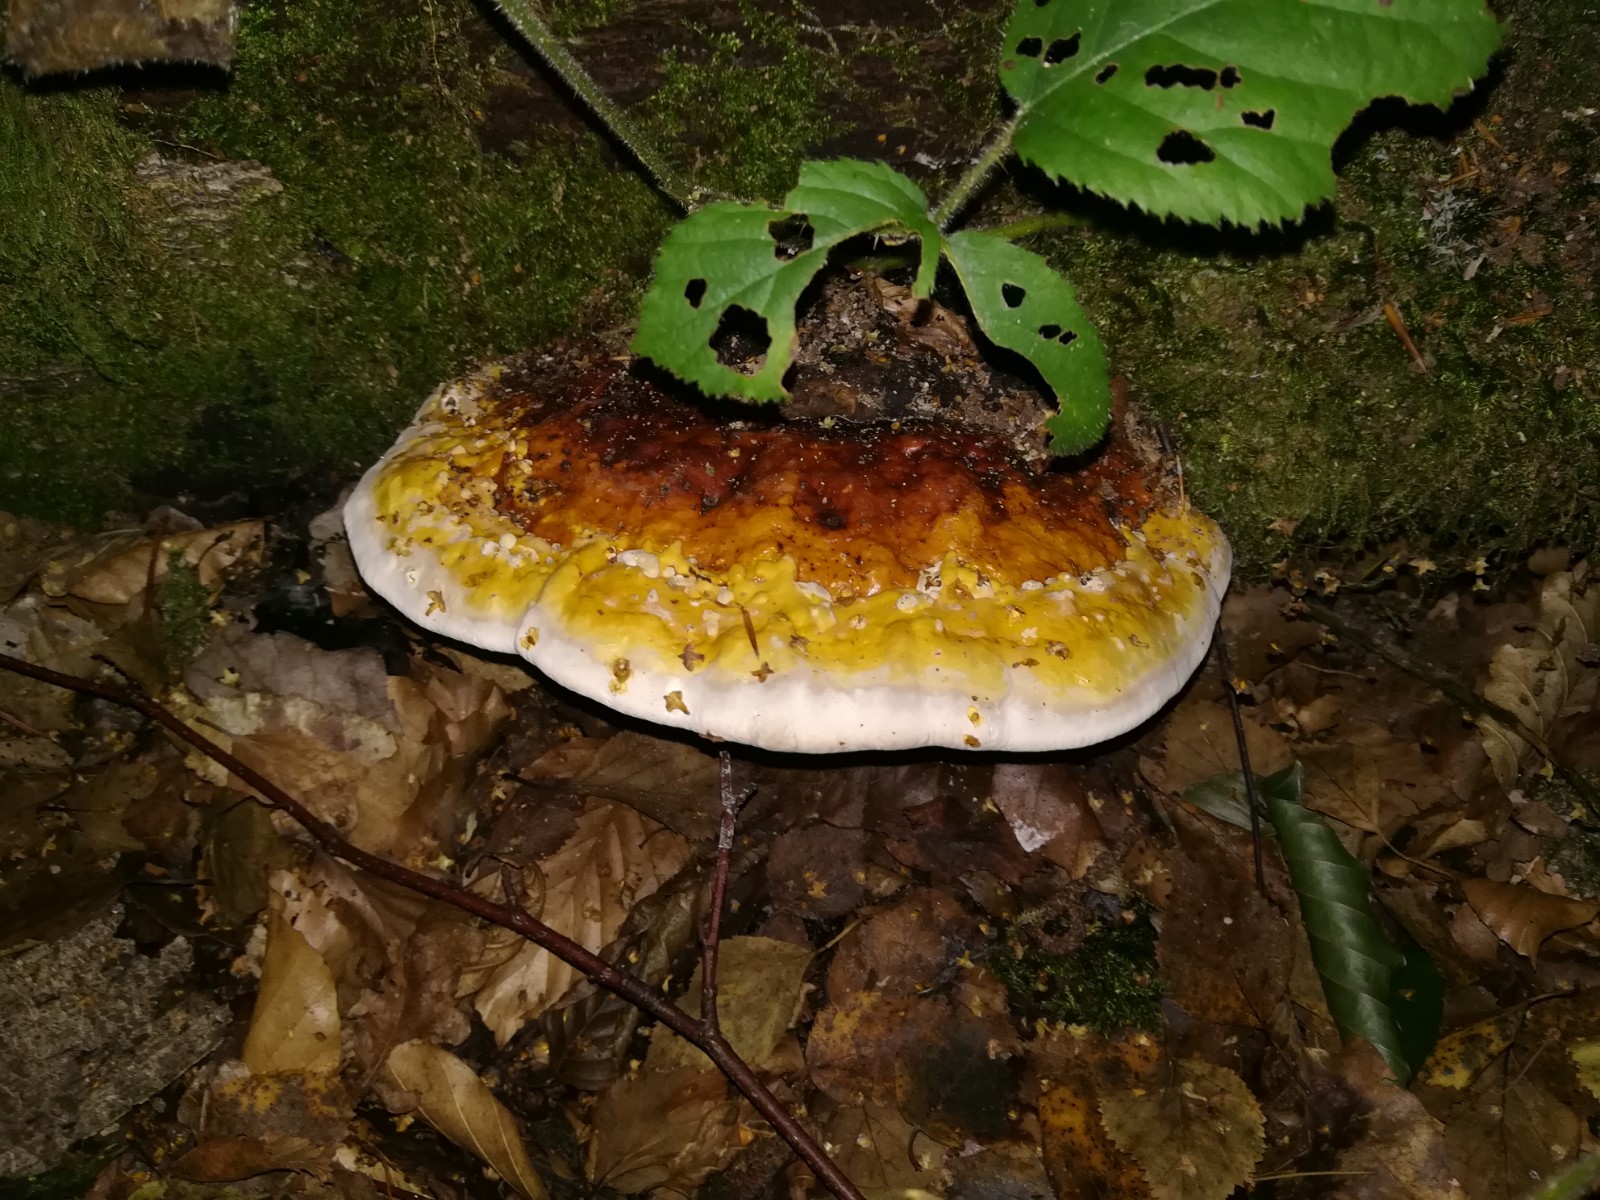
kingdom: Fungi
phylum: Basidiomycota
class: Agaricomycetes
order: Polyporales
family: Fomitopsidaceae
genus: Fomitopsis
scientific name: Fomitopsis pinicola
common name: randbæltet hovporesvamp
